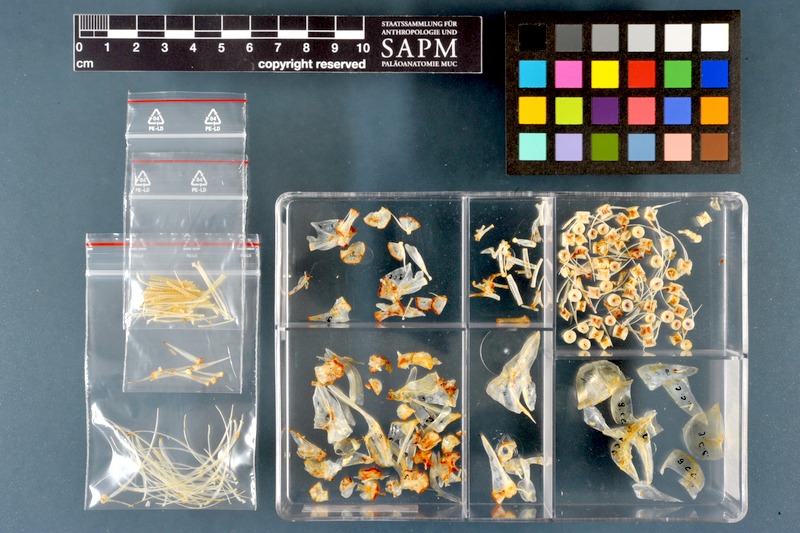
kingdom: Animalia
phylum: Chordata
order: Salmoniformes
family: Salmonidae
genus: Coregonus
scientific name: Coregonus lavaretus
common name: Schelly
